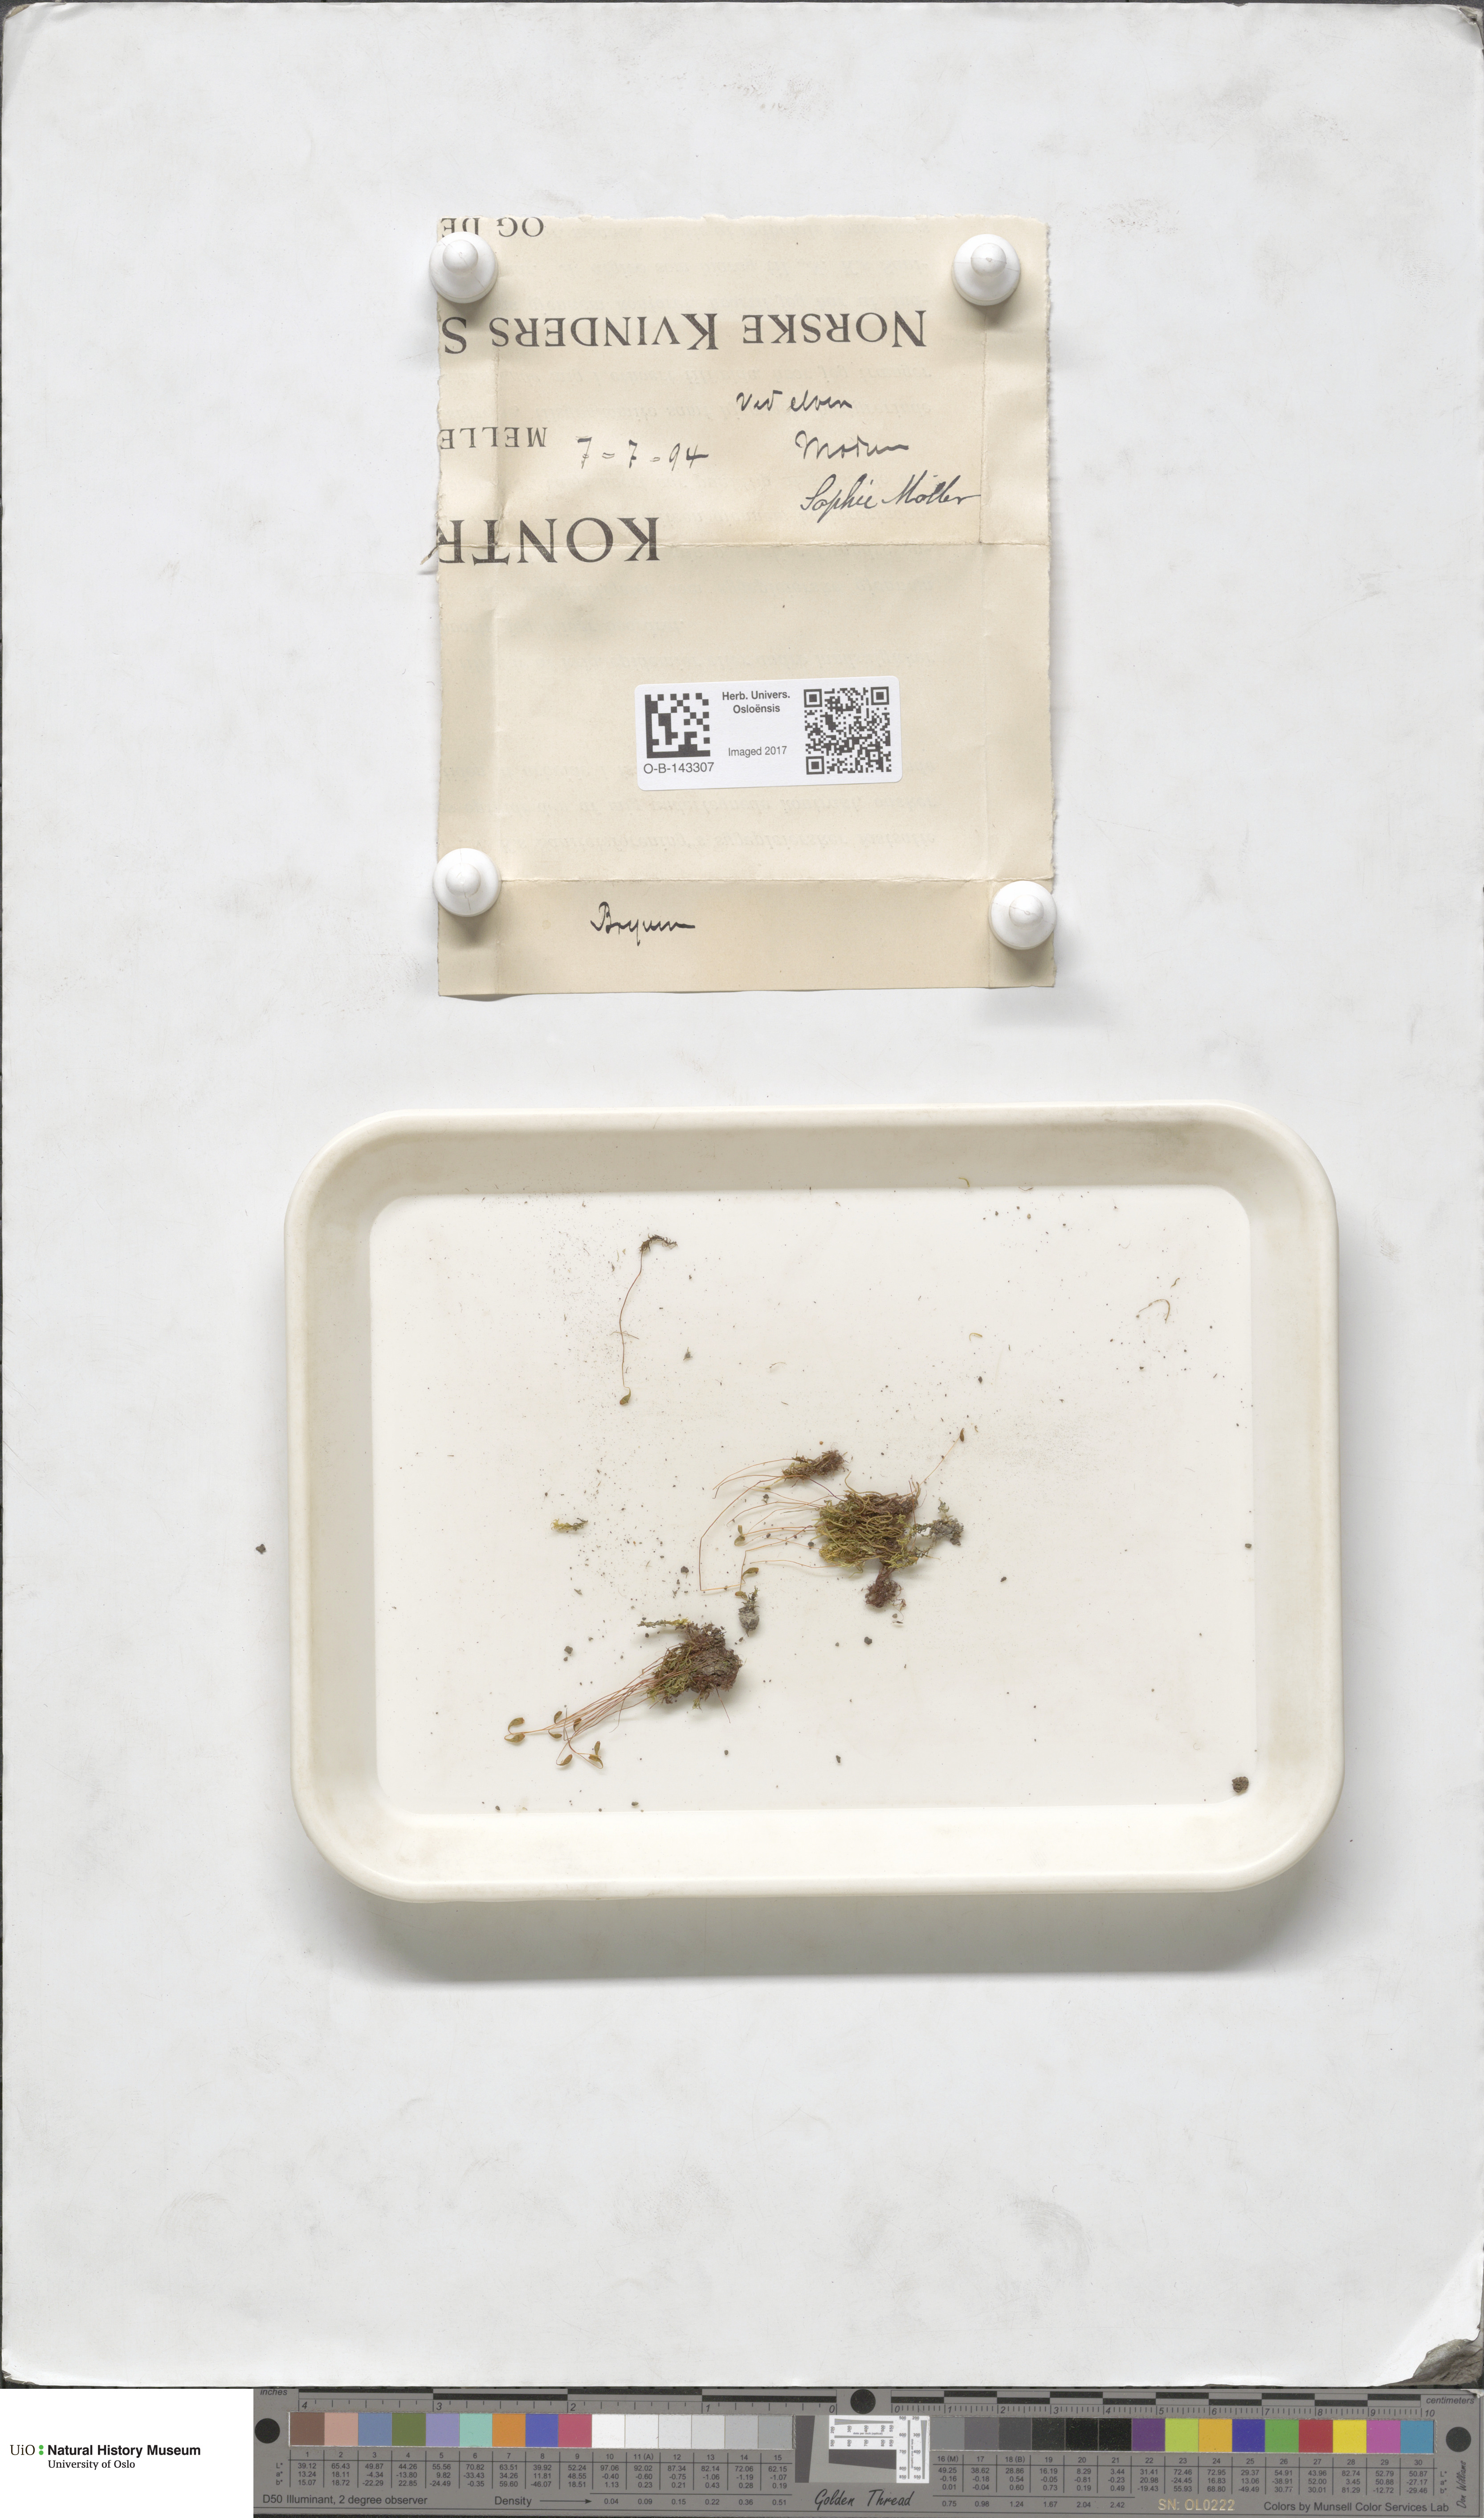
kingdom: Plantae
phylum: Bryophyta
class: Bryopsida
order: Bryales
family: Bryaceae
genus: Bryum
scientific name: Bryum
